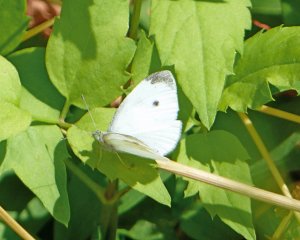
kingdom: Animalia
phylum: Arthropoda
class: Insecta
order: Lepidoptera
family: Pieridae
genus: Pieris
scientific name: Pieris rapae
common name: Cabbage White
